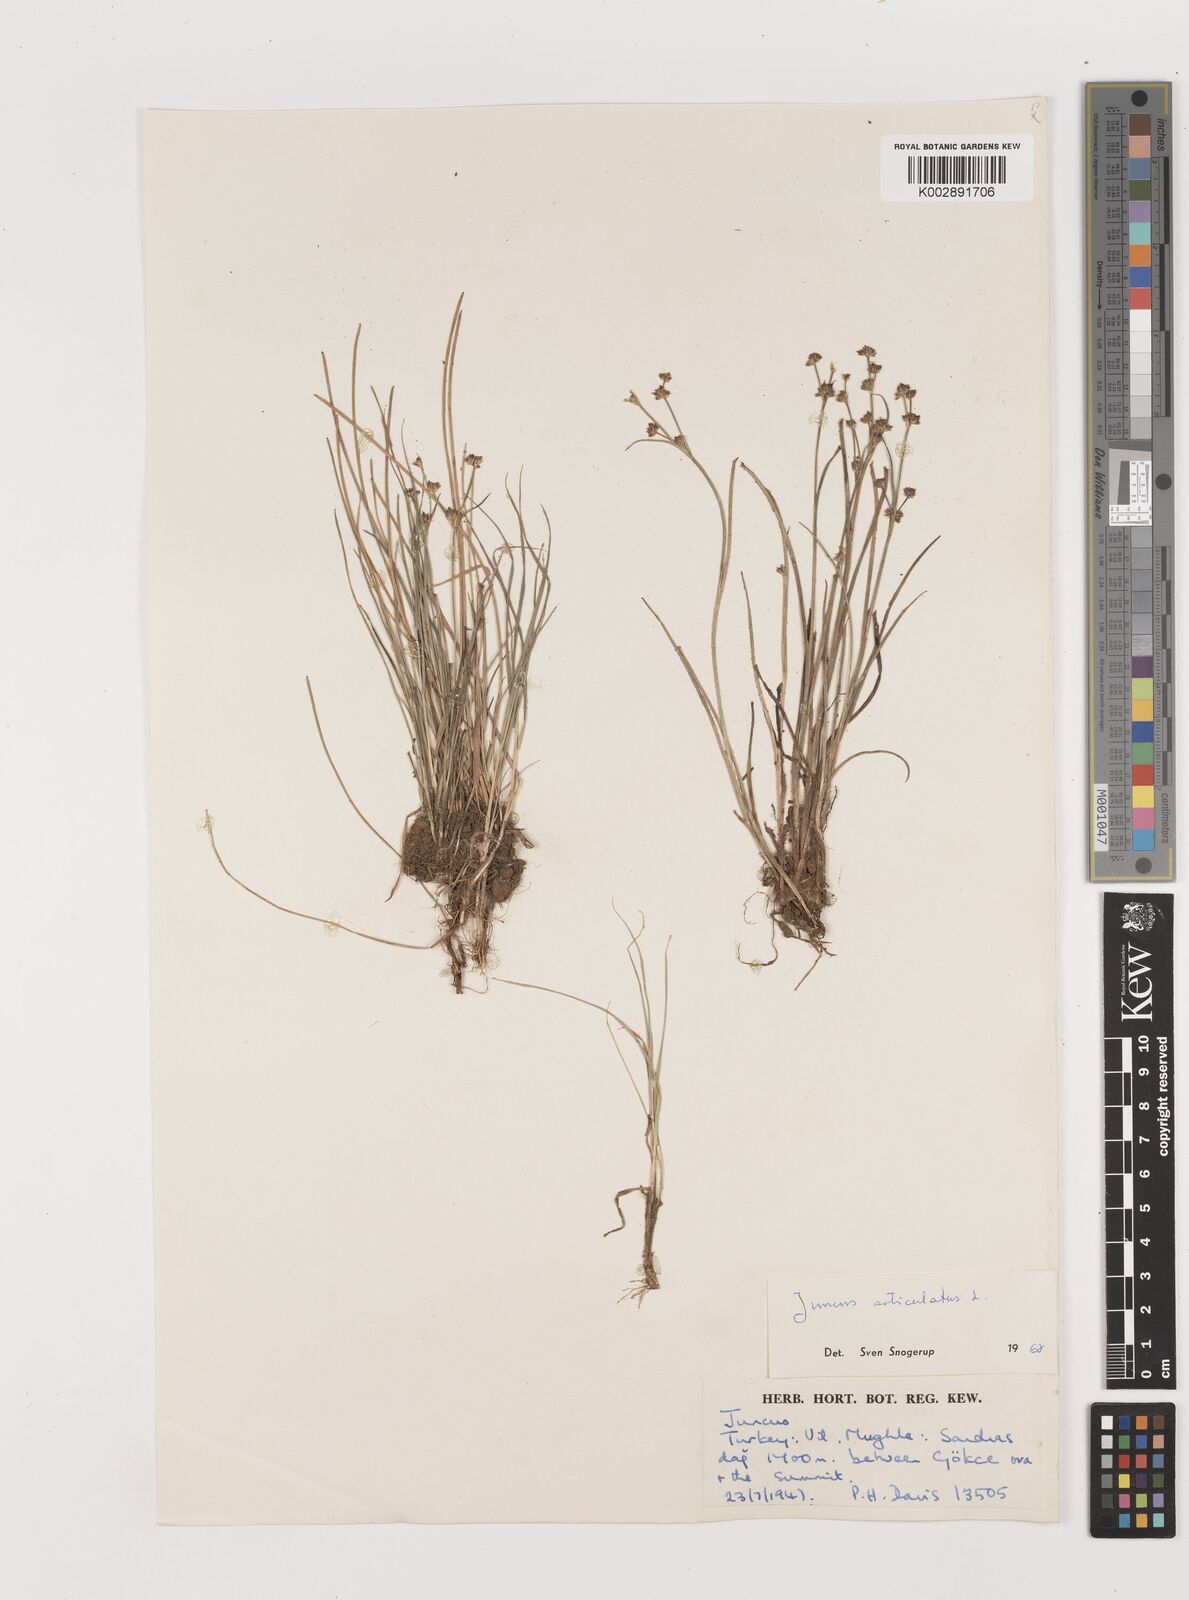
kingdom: Plantae
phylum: Tracheophyta
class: Liliopsida
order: Poales
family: Juncaceae
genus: Juncus
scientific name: Juncus articulatus
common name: Jointed rush
